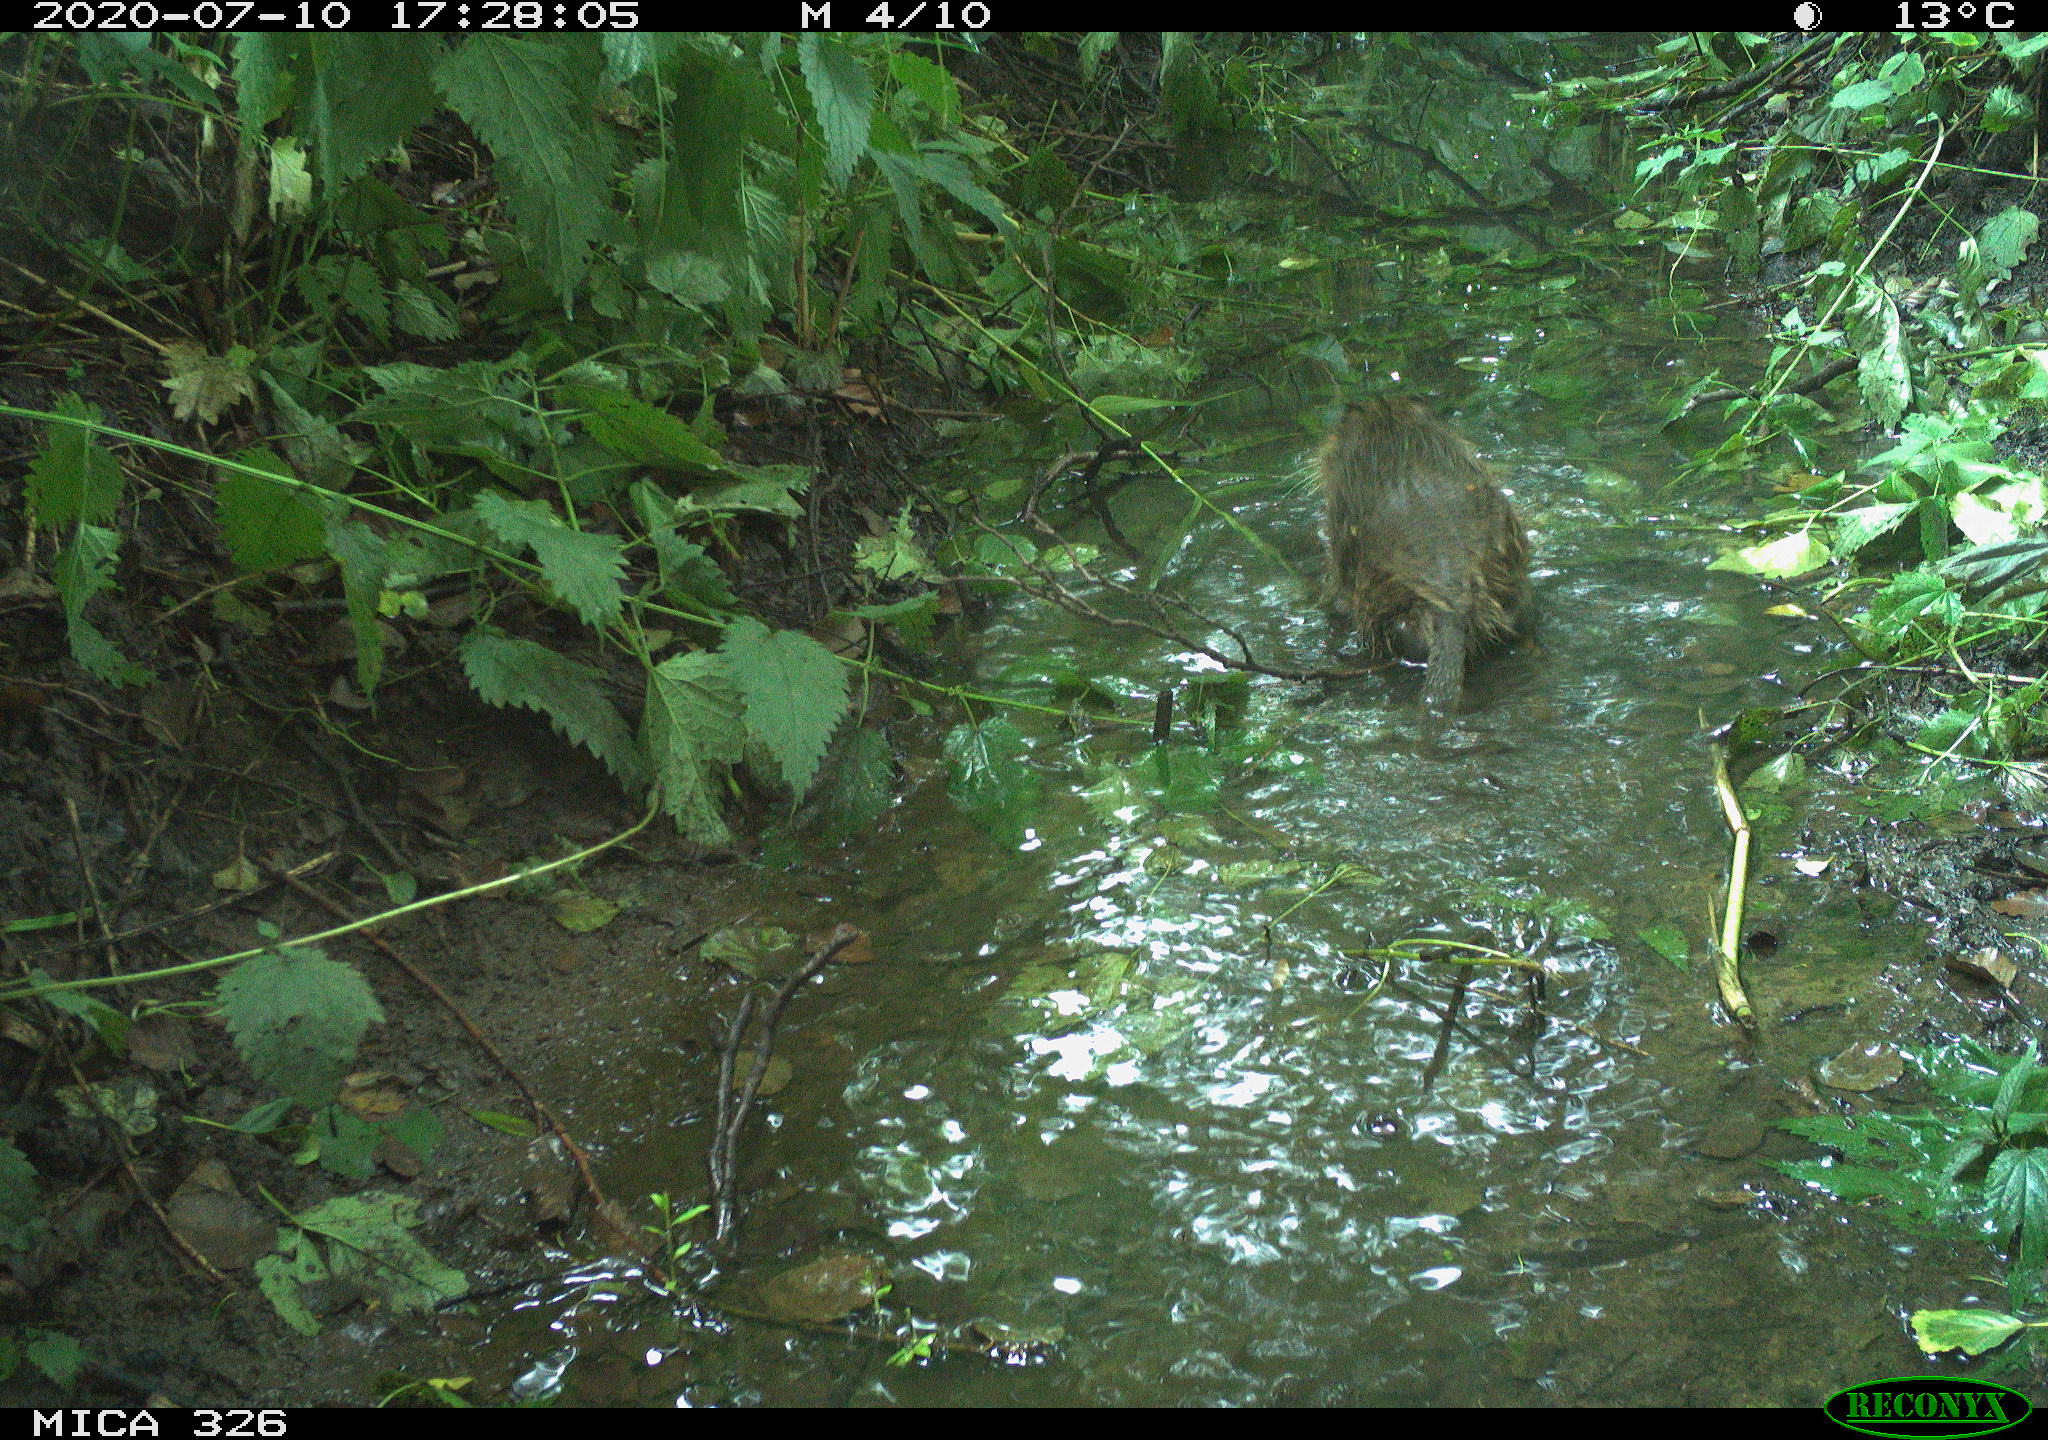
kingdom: Animalia
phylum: Chordata
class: Mammalia
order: Rodentia
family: Myocastoridae
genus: Myocastor
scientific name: Myocastor coypus
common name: Coypu
